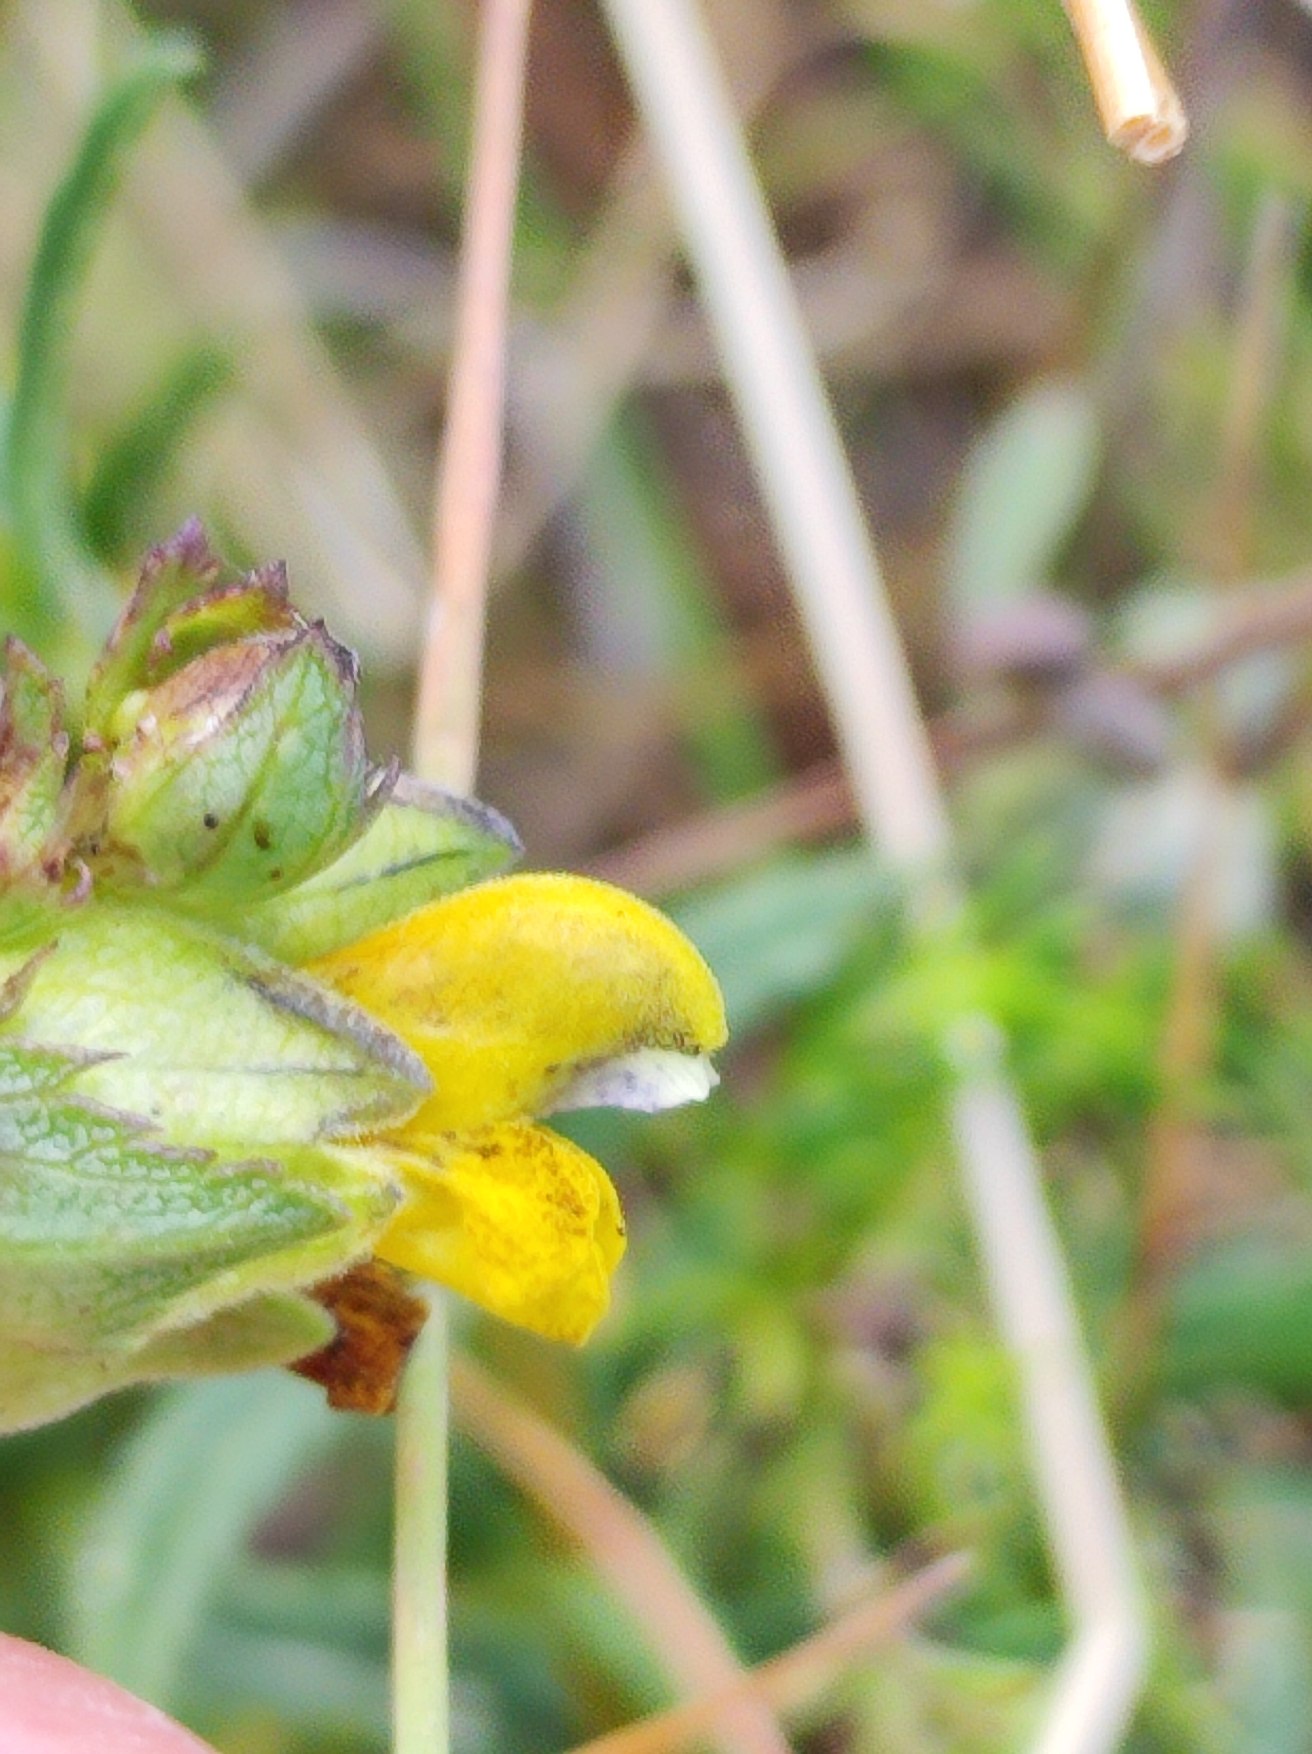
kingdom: Plantae
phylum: Tracheophyta
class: Magnoliopsida
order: Lamiales
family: Orobanchaceae
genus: Rhinanthus
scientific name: Rhinanthus minor
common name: Liden skjaller
